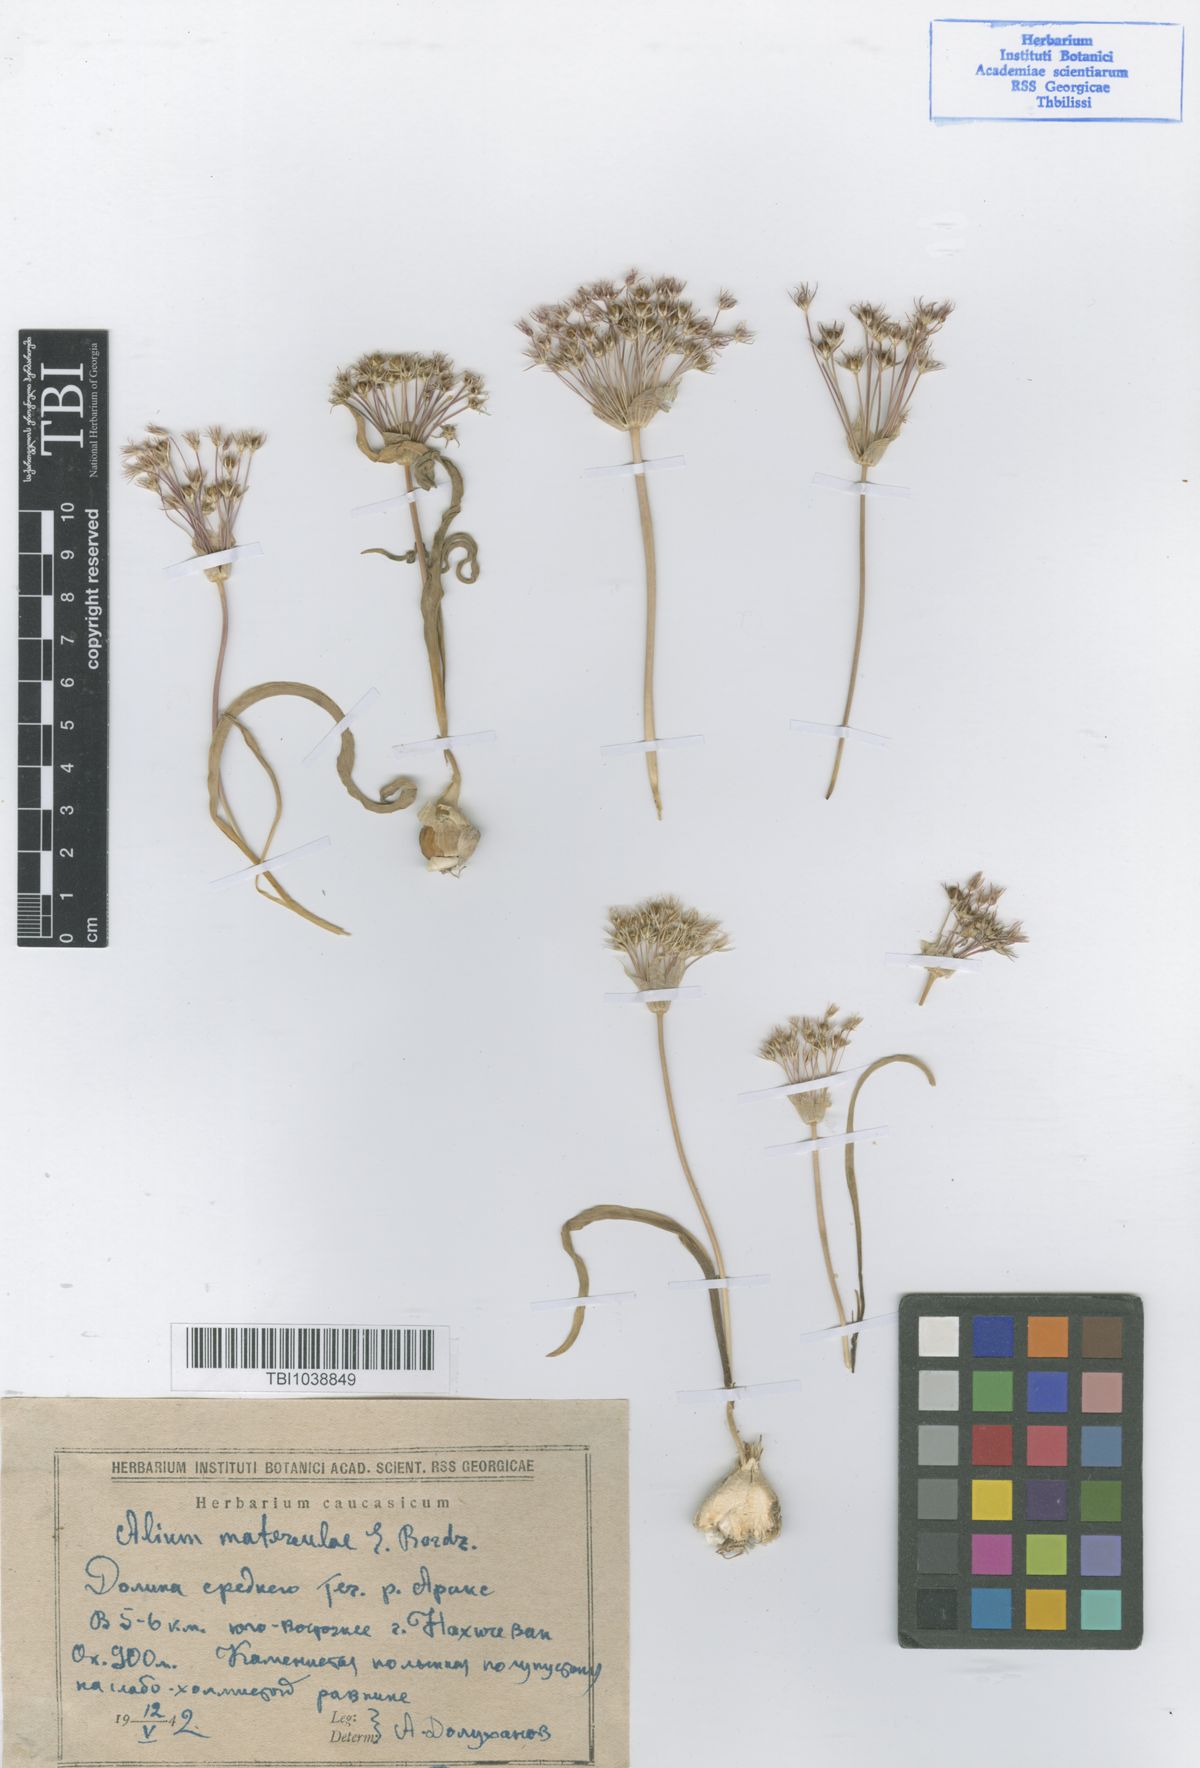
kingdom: Plantae
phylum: Tracheophyta
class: Liliopsida
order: Asparagales
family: Amaryllidaceae
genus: Allium
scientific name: Allium materculae
